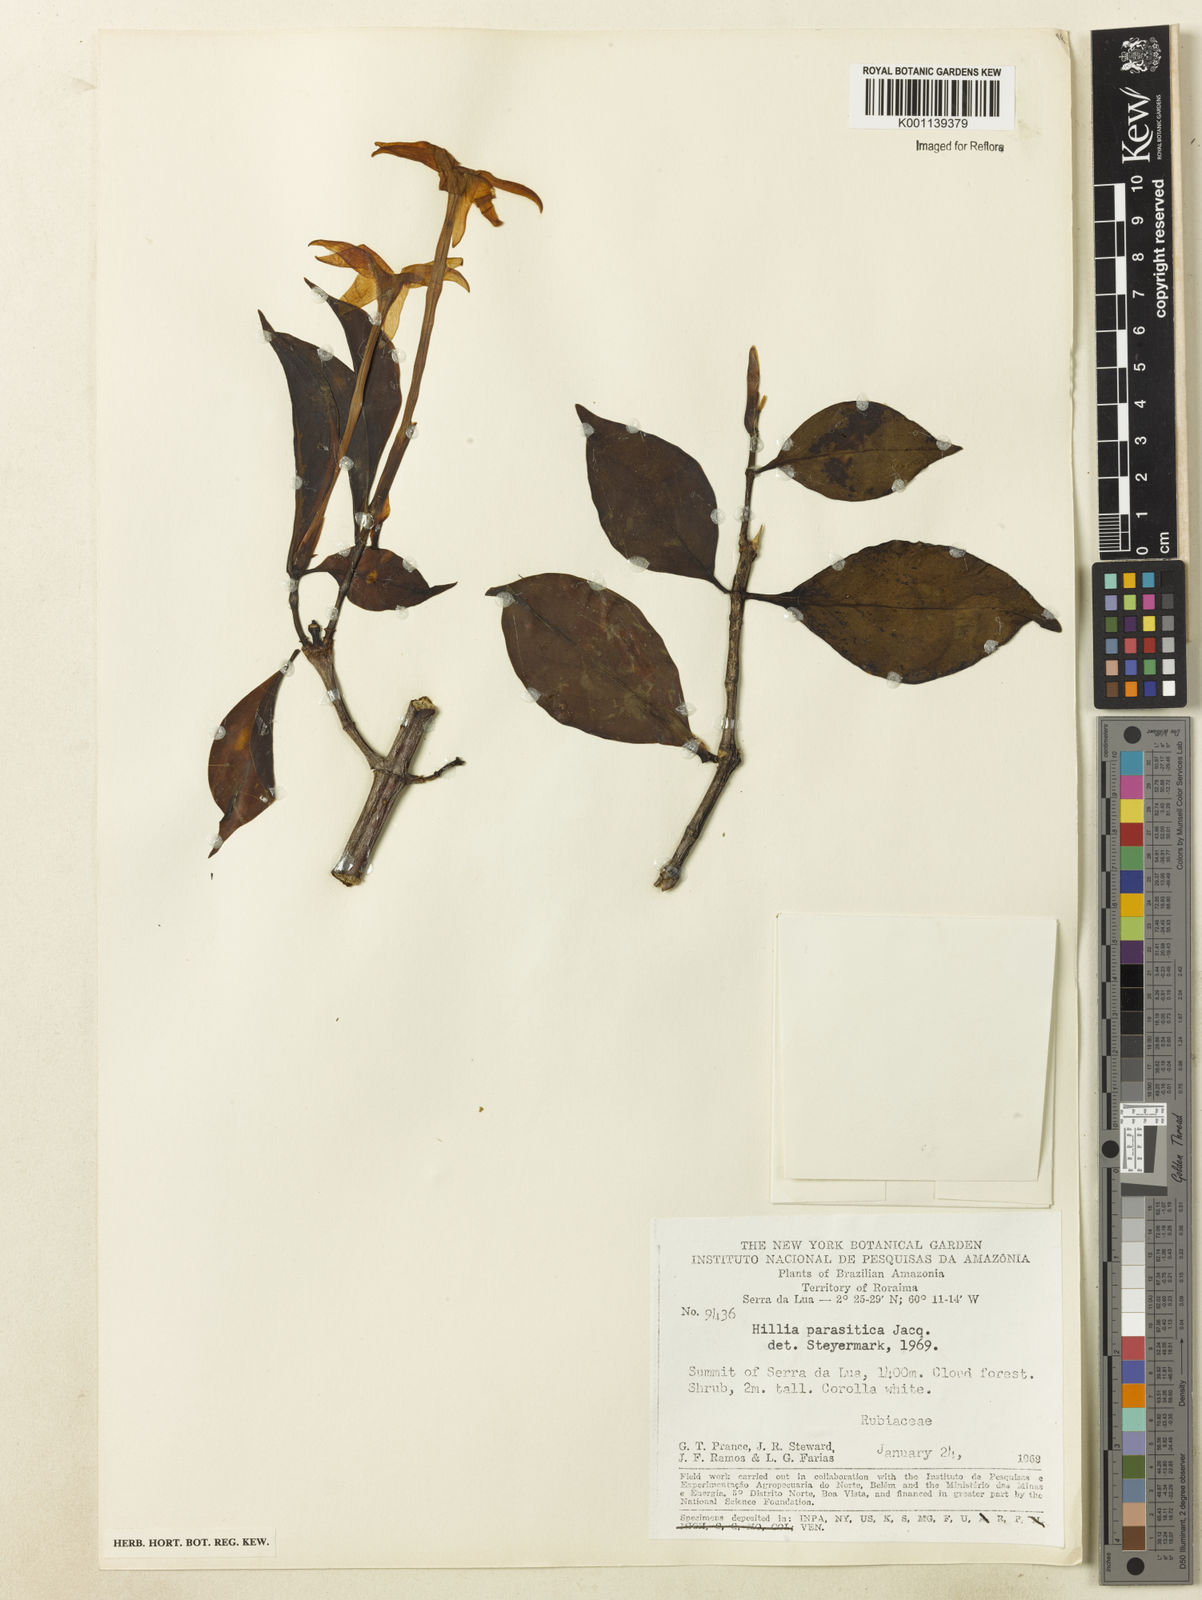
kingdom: Plantae
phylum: Tracheophyta
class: Magnoliopsida
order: Gentianales
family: Rubiaceae
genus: Hillia
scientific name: Hillia parasitica
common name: Morning star
